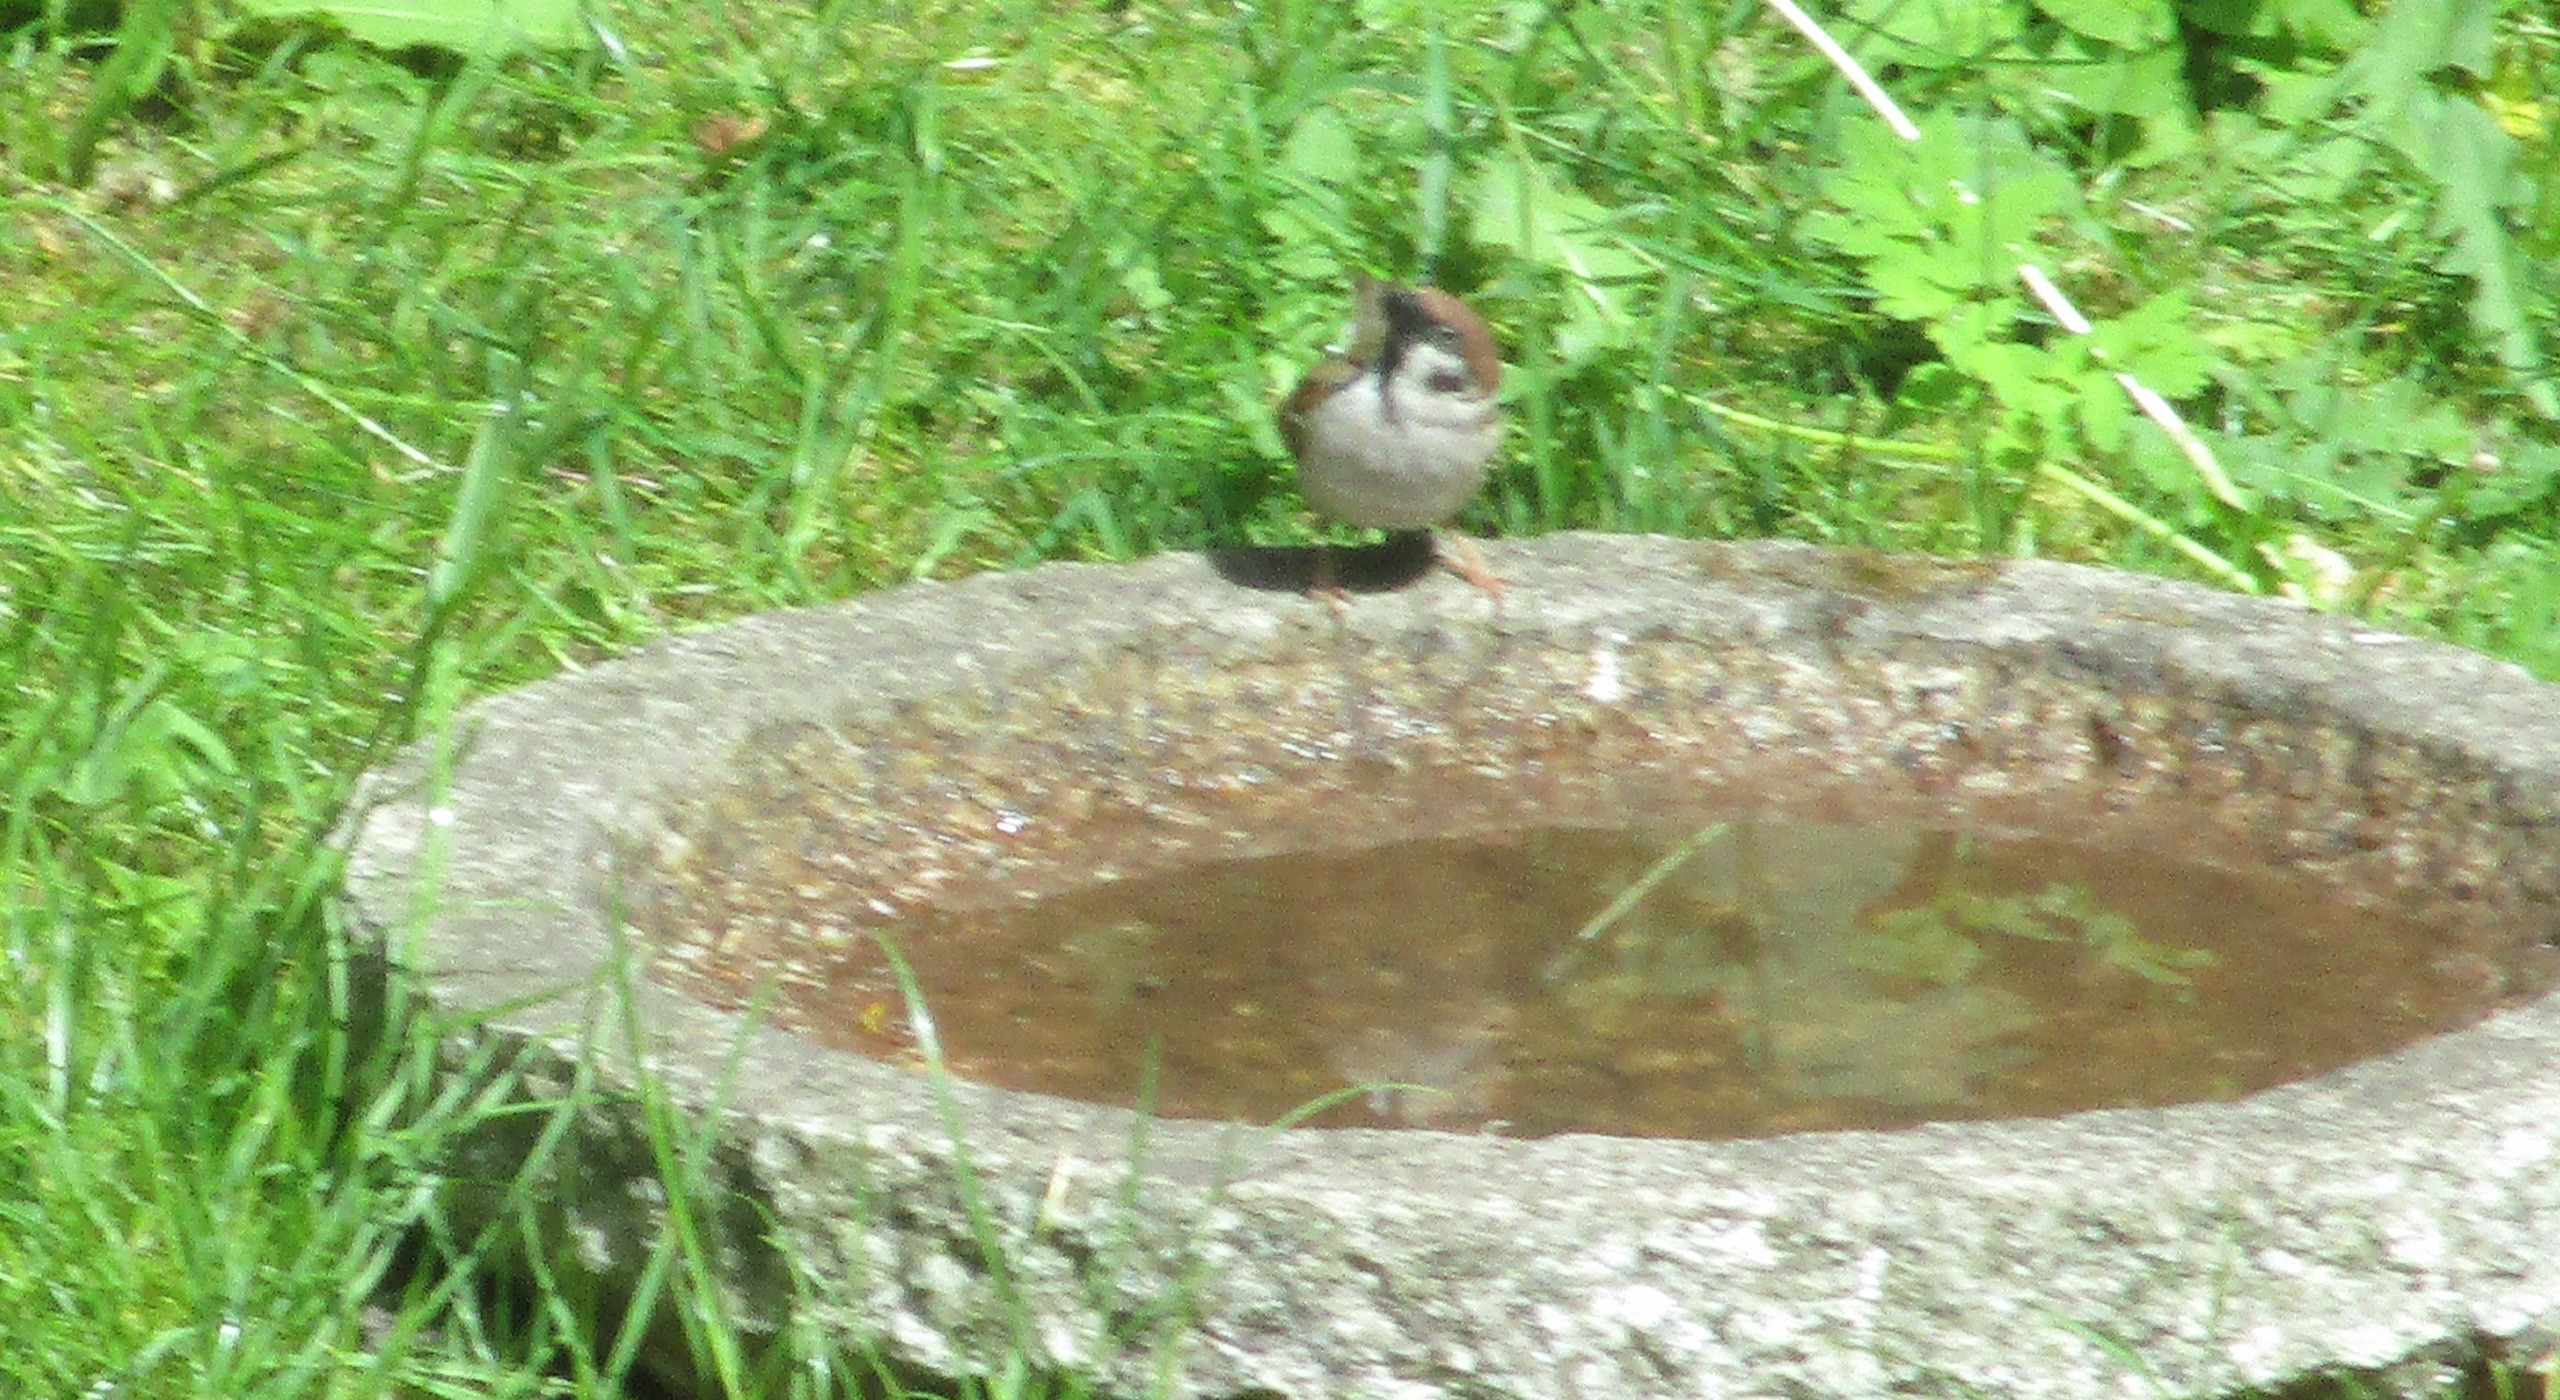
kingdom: Animalia
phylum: Chordata
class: Aves
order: Passeriformes
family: Passeridae
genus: Passer
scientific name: Passer montanus
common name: Skovspurv
